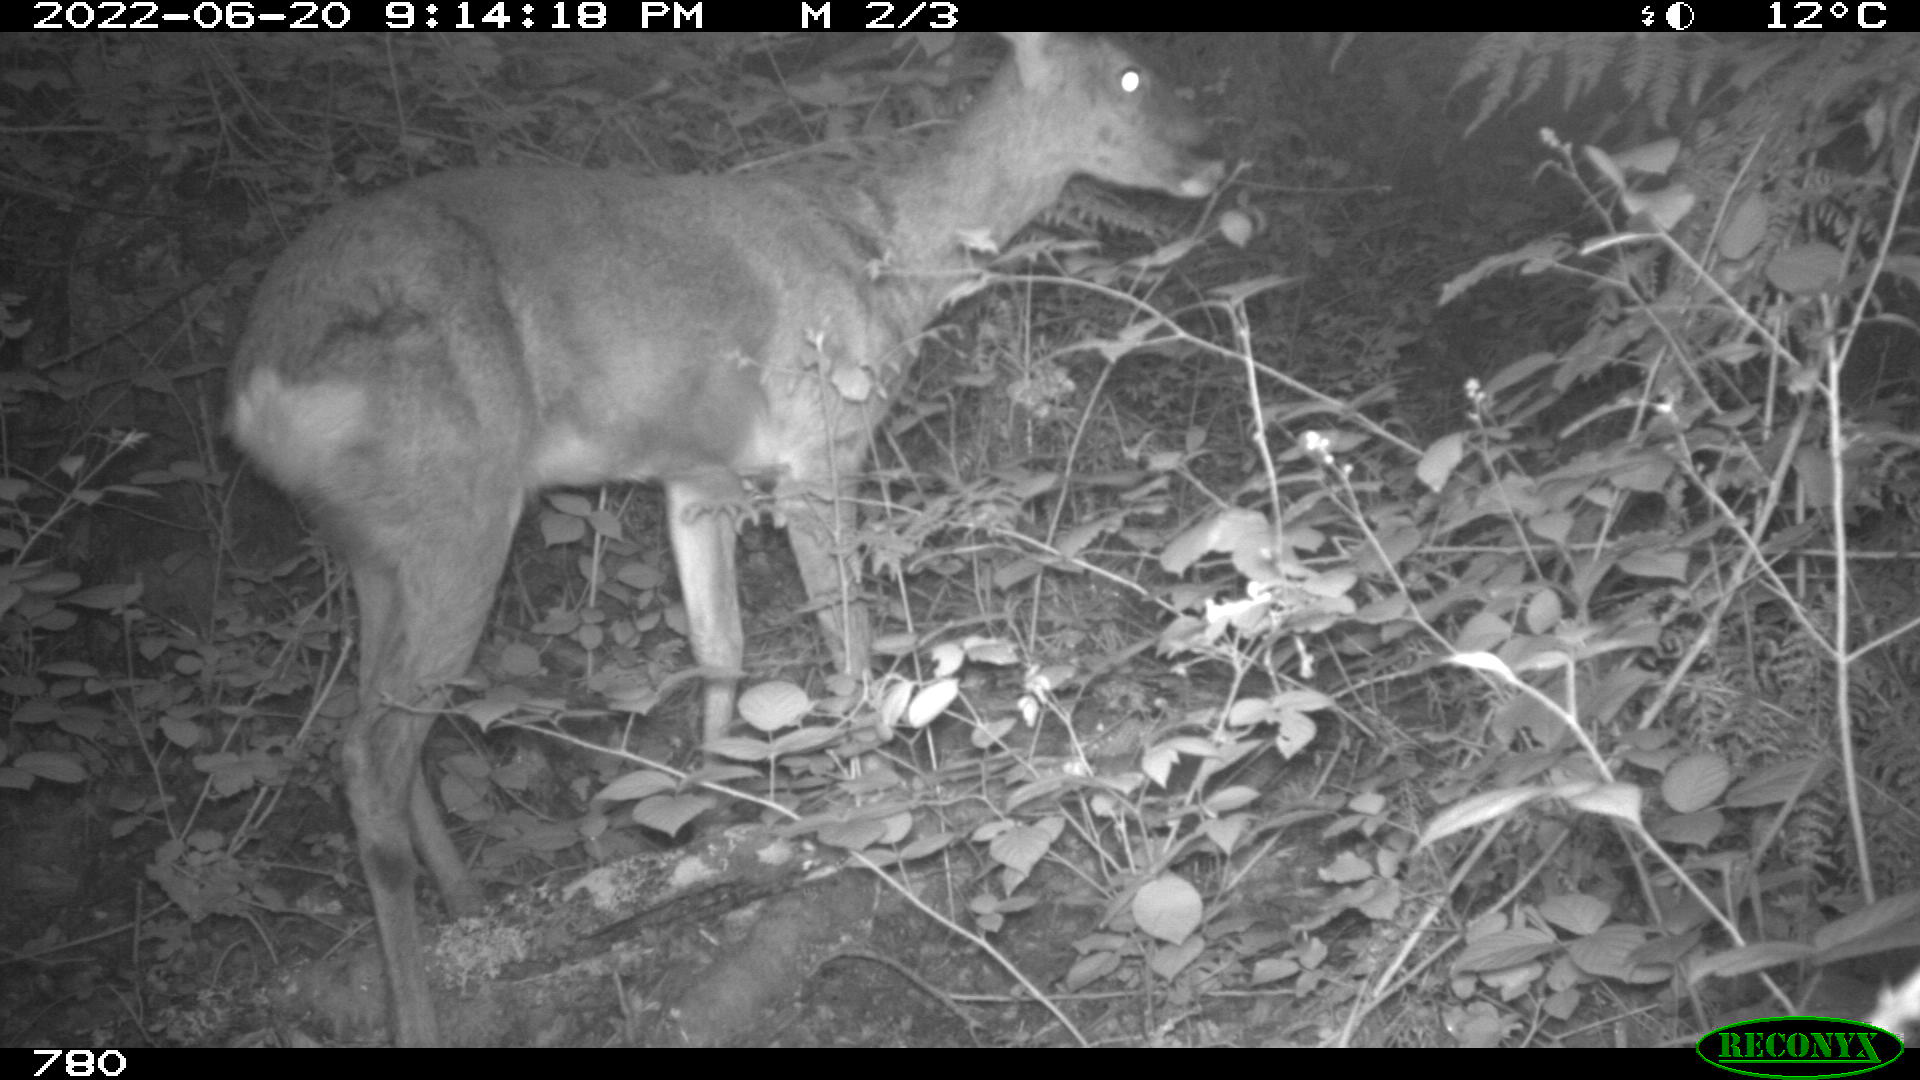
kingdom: Animalia
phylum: Chordata
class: Mammalia
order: Artiodactyla
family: Cervidae
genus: Capreolus
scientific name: Capreolus capreolus
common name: Western roe deer
